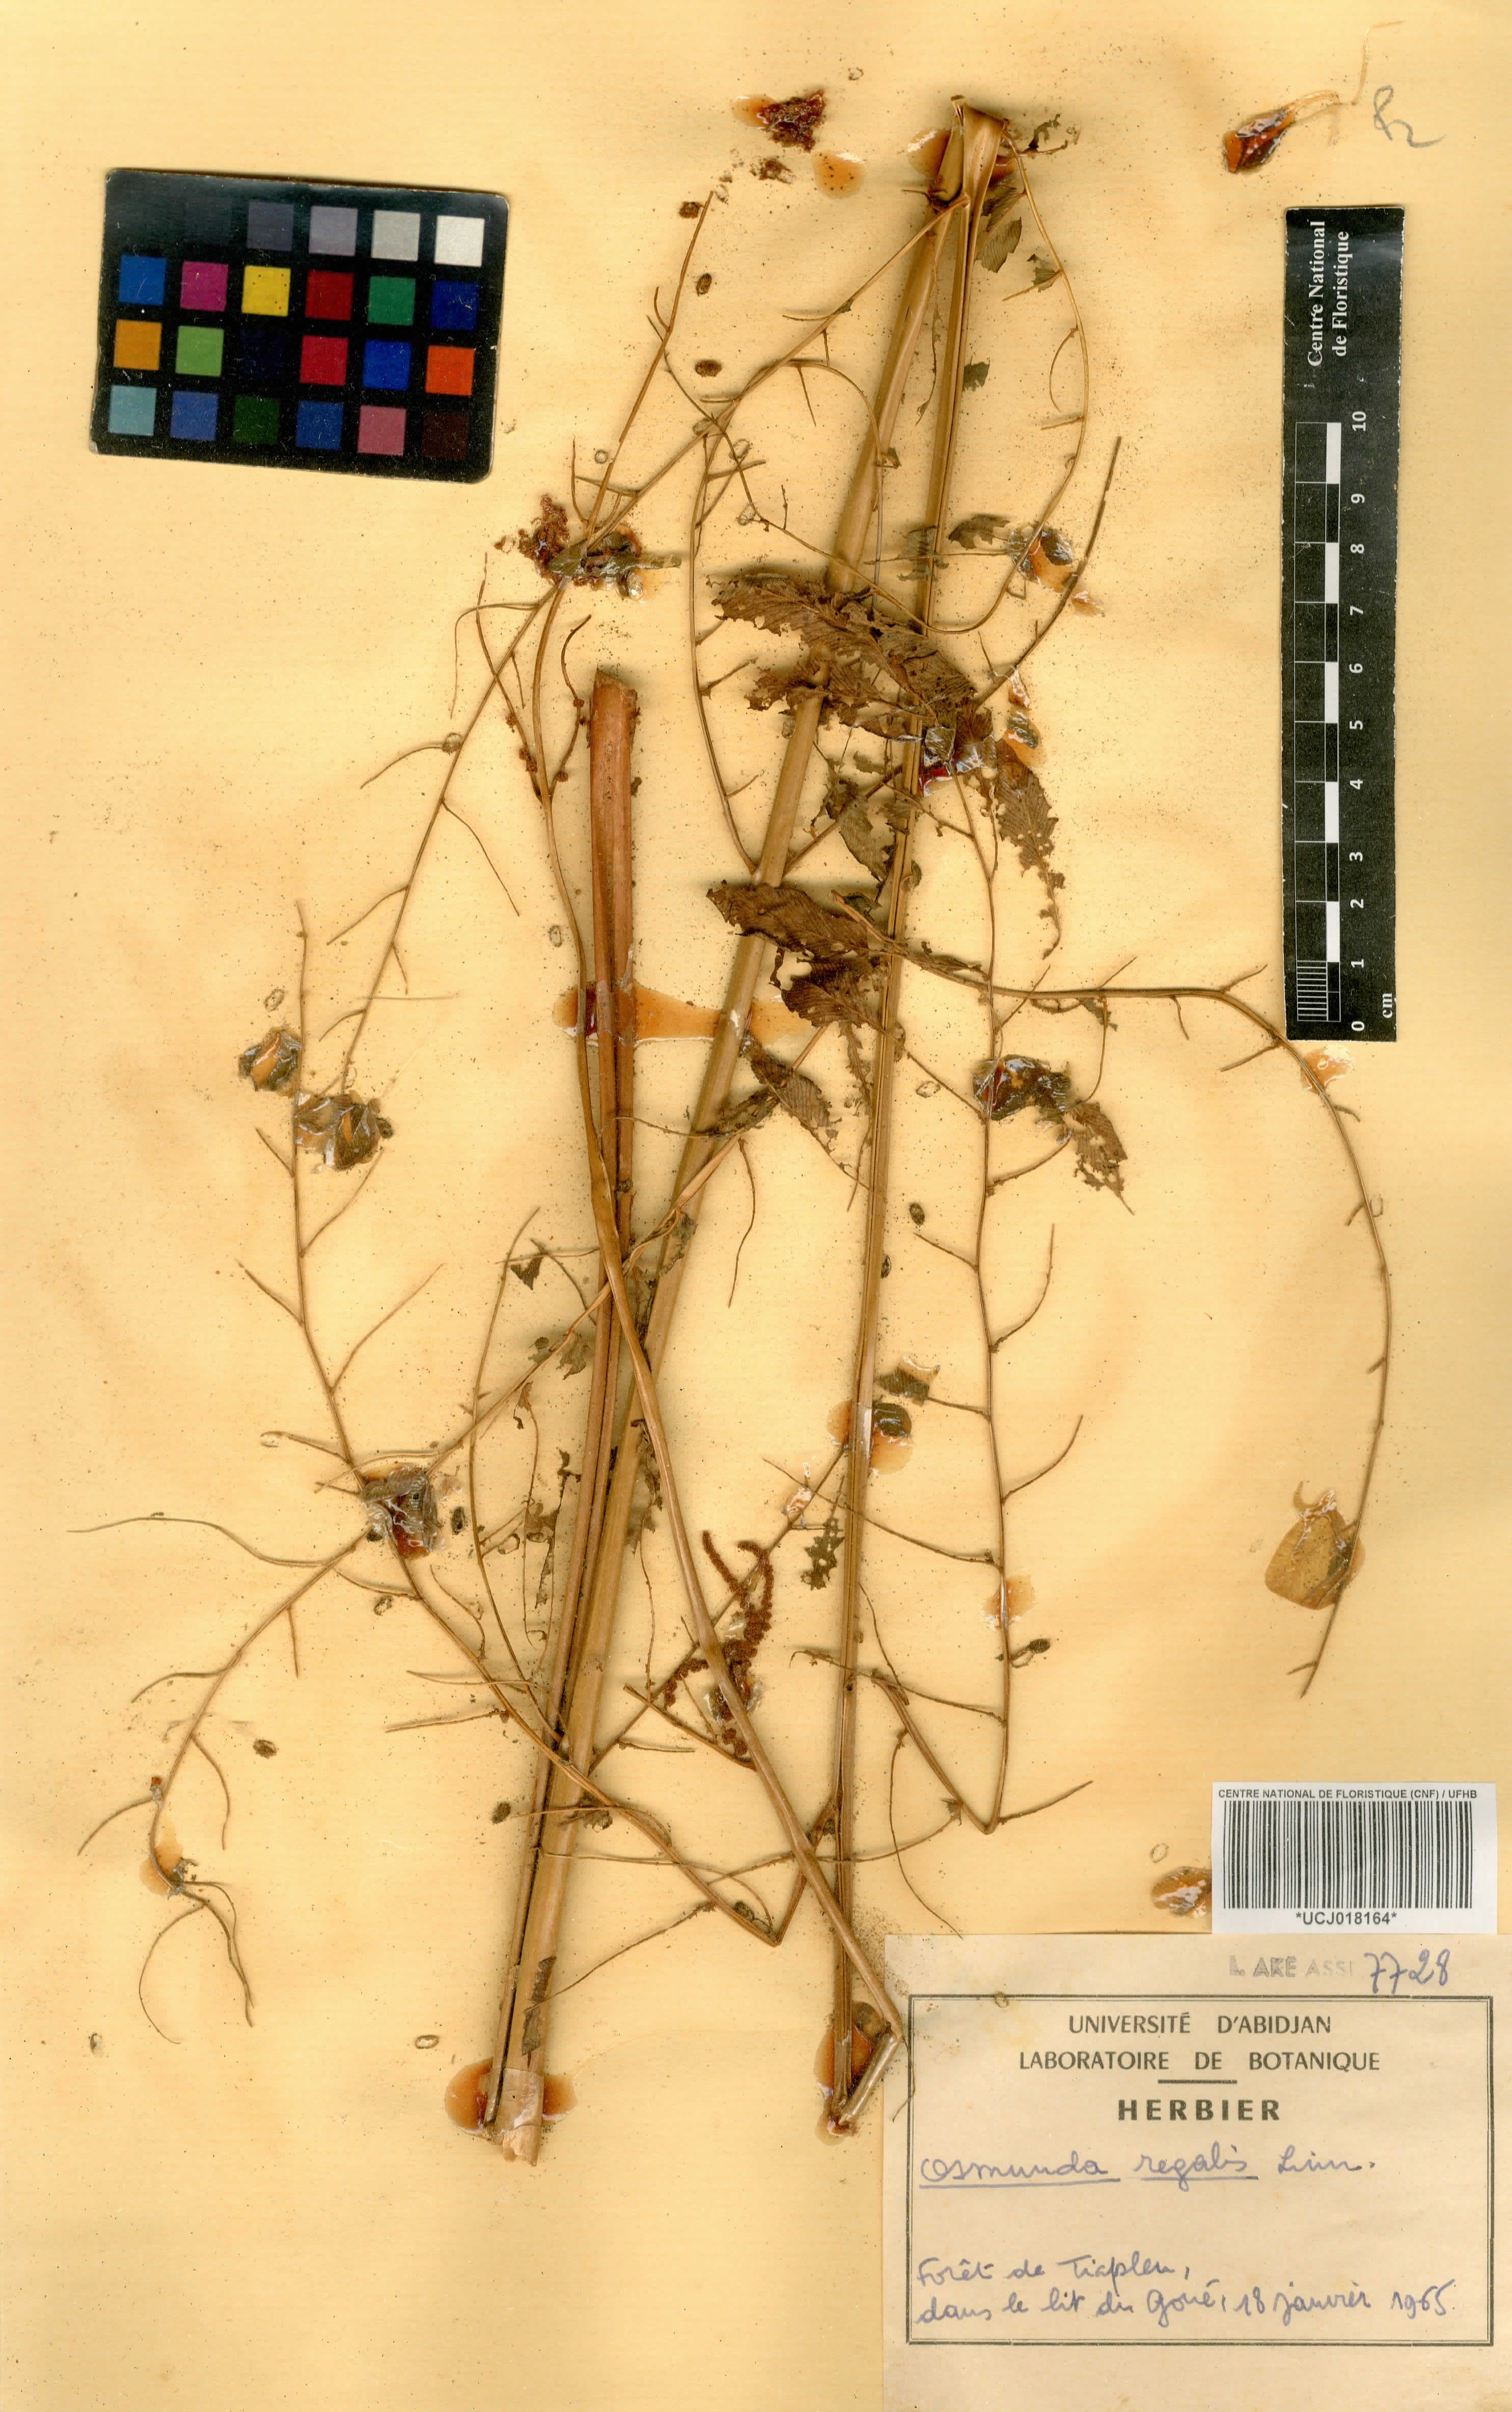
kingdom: Plantae
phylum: Tracheophyta
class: Polypodiopsida
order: Osmundales
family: Osmundaceae
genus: Osmunda
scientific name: Osmunda regalis
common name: Royal fern
